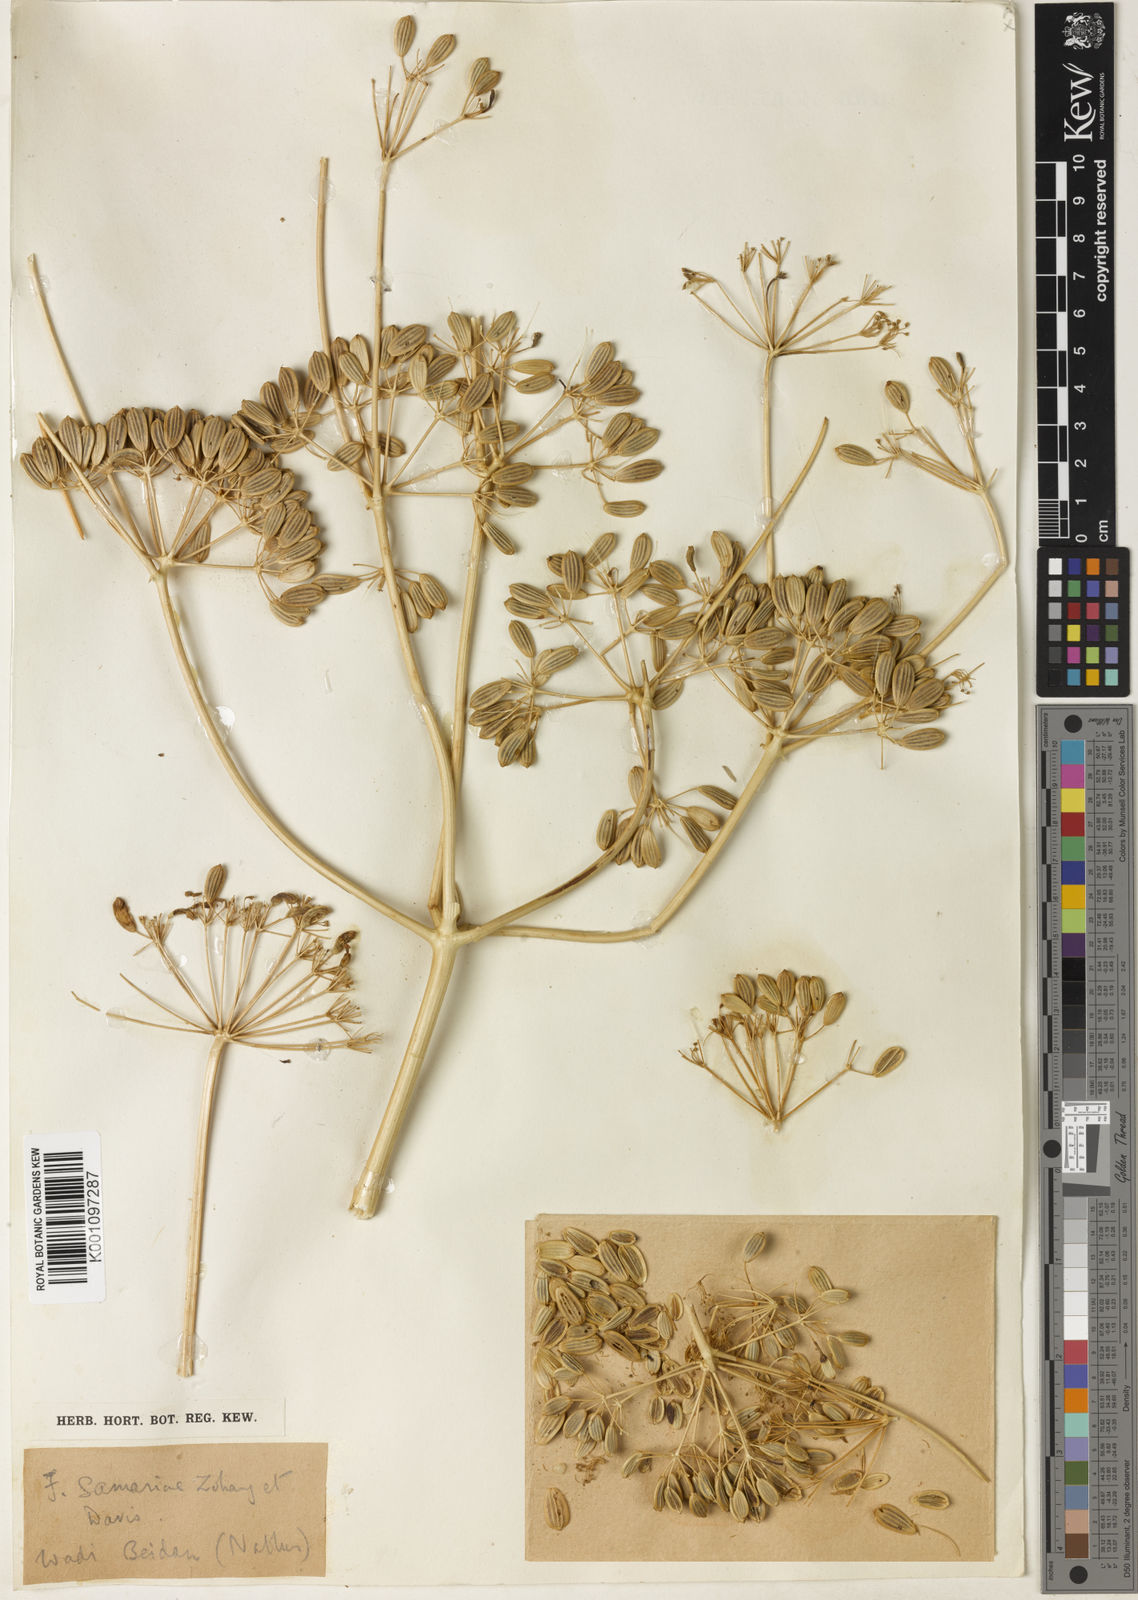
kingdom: Plantae
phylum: Tracheophyta
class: Magnoliopsida
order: Apiales
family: Apiaceae
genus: Ferula
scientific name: Ferula orientalis
